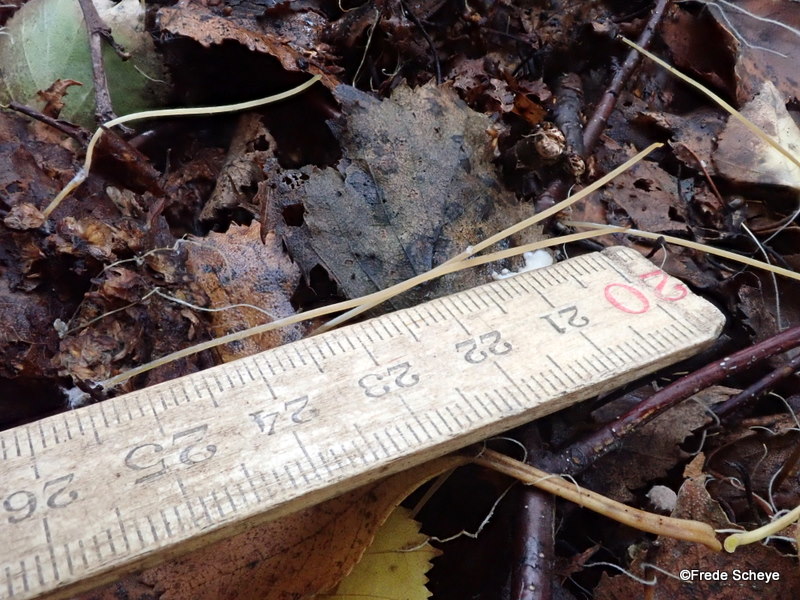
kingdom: Fungi
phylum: Basidiomycota
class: Agaricomycetes
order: Agaricales
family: Typhulaceae
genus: Typhula
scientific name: Typhula juncea
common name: trådagtig rørkølle
